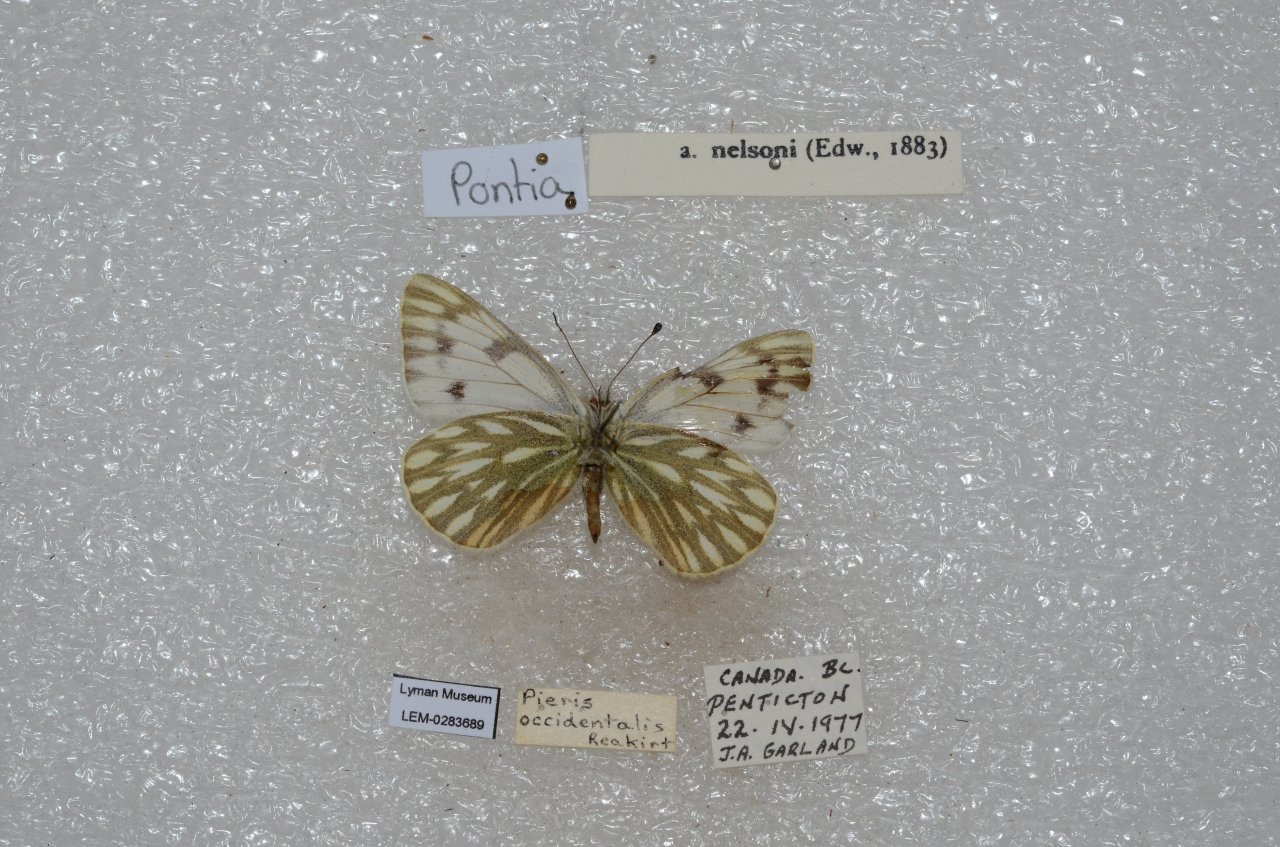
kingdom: Animalia
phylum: Arthropoda
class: Insecta
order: Lepidoptera
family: Pieridae
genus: Colias
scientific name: Colias occidentalis
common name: Western Sulphur
